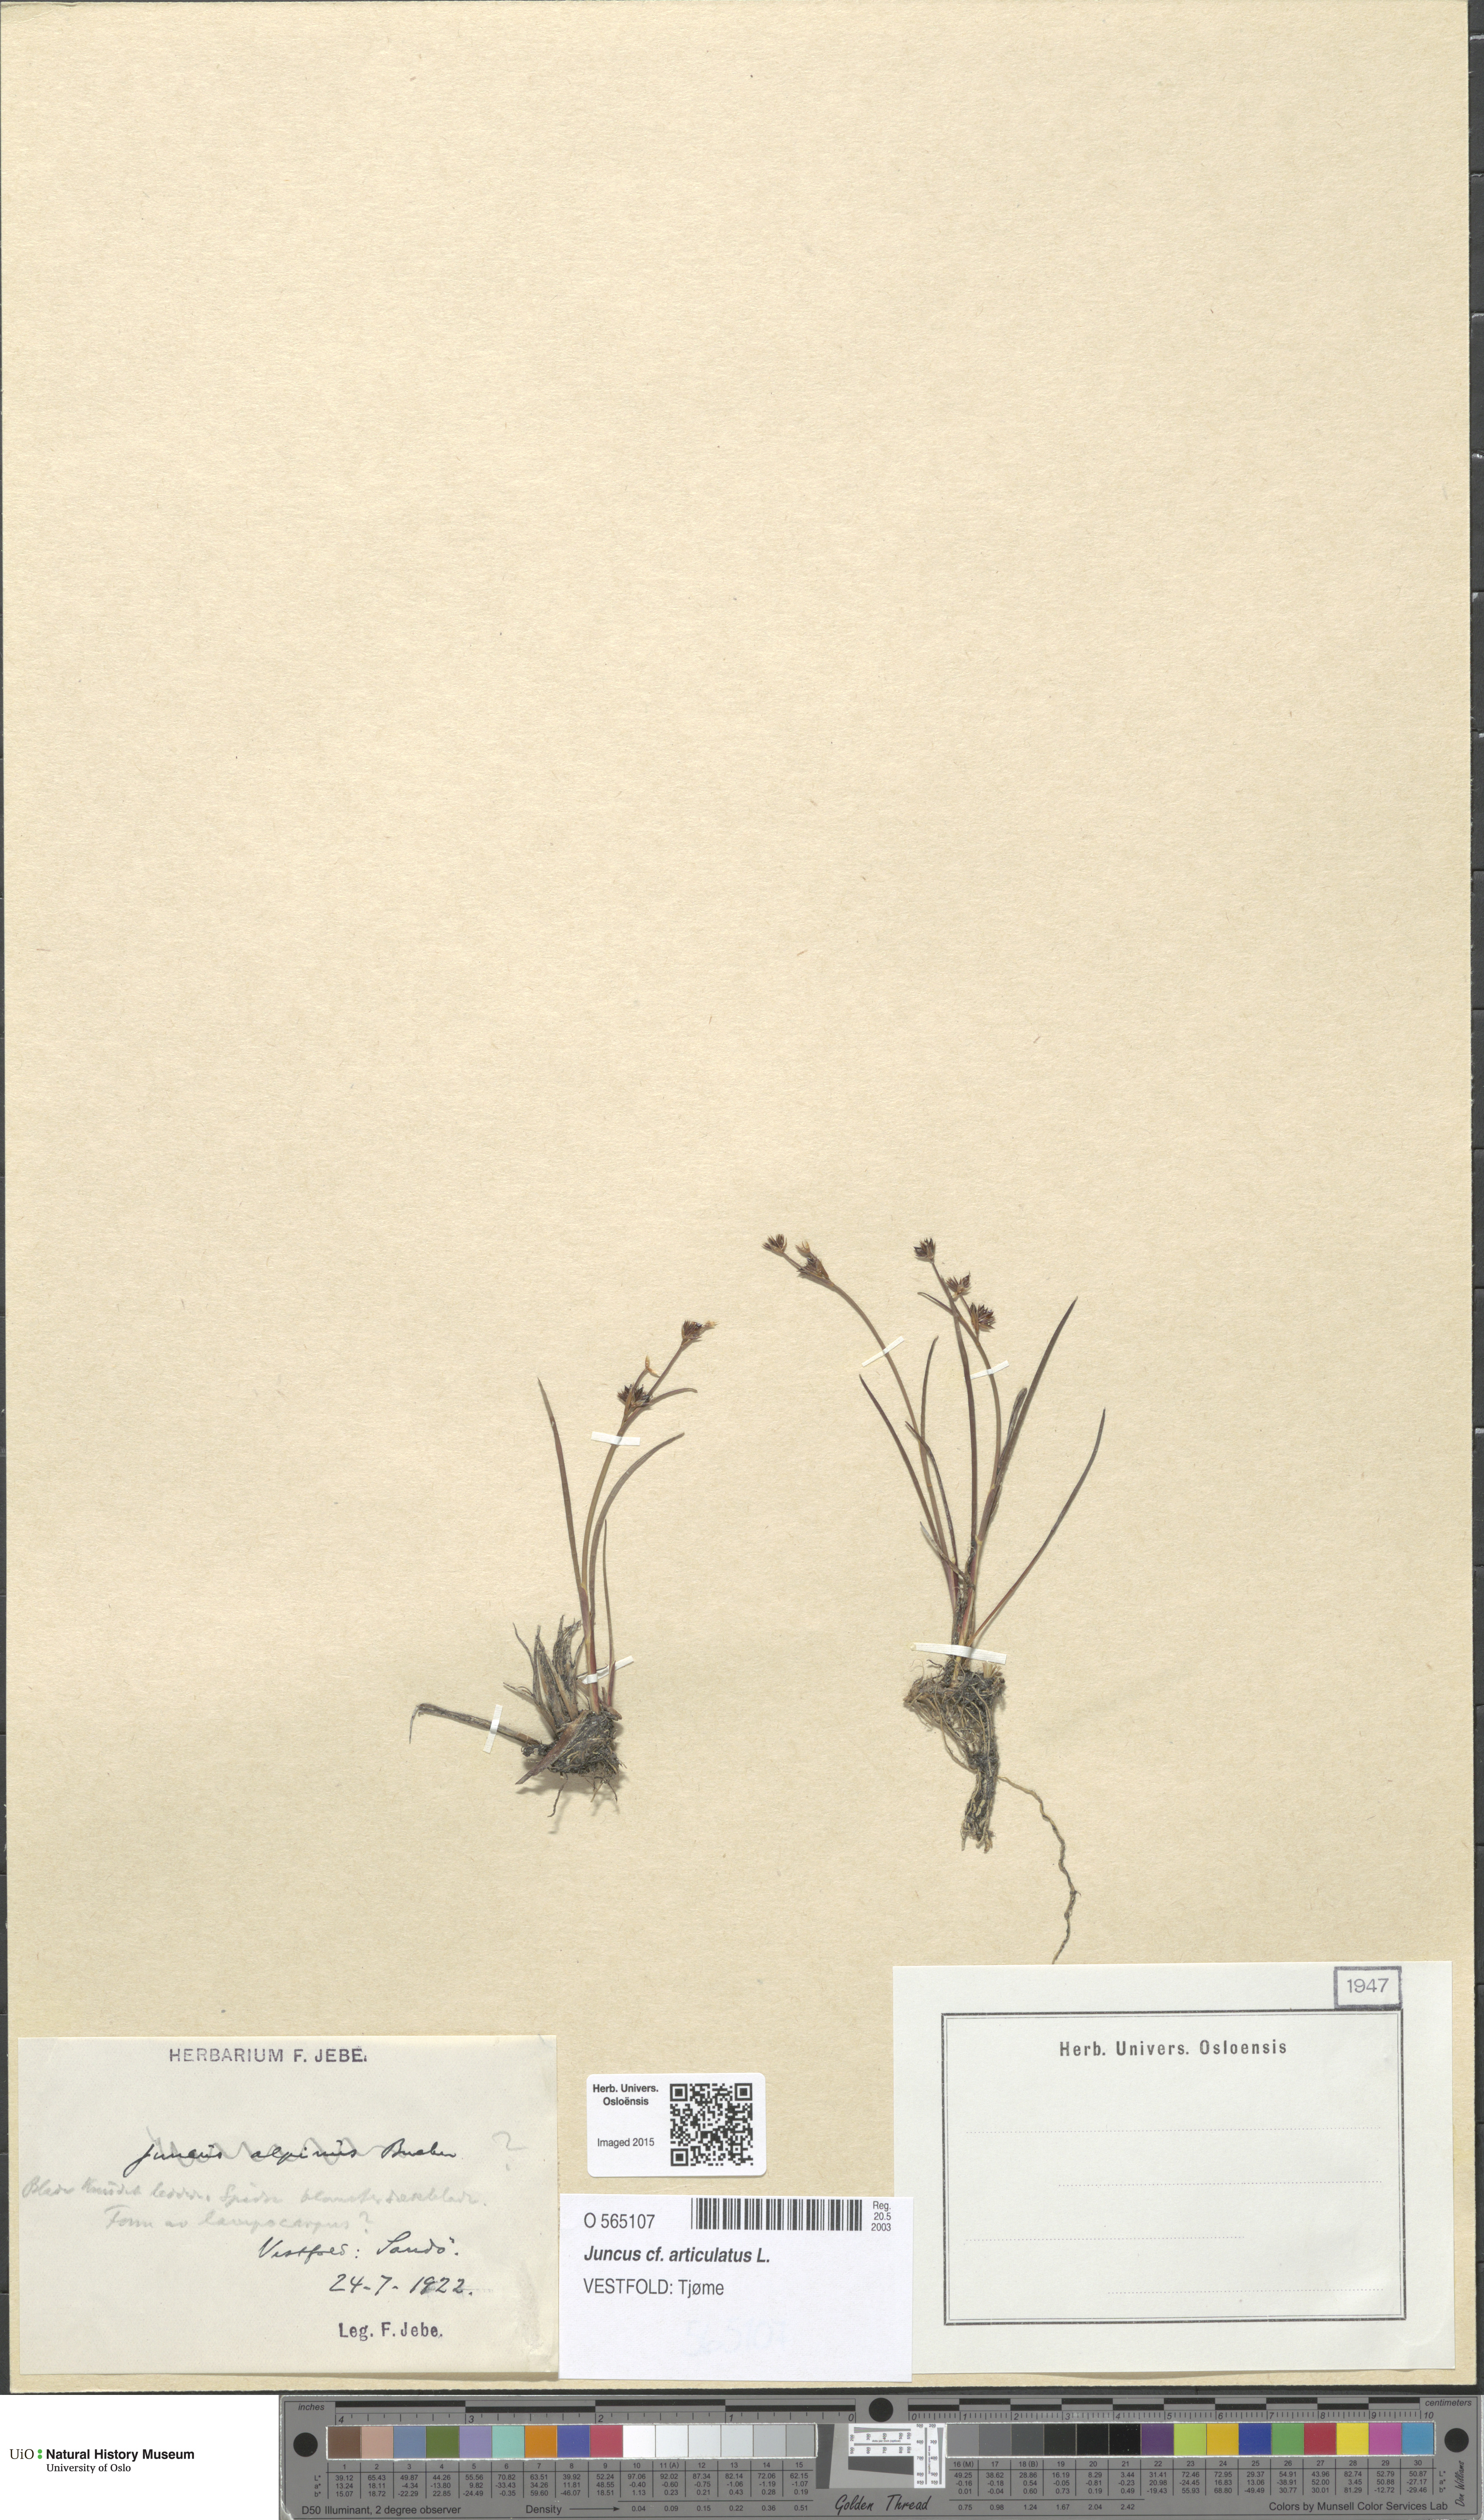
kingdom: Plantae
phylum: Tracheophyta
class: Liliopsida
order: Poales
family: Juncaceae
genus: Juncus
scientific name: Juncus articulatus
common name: Jointed rush
